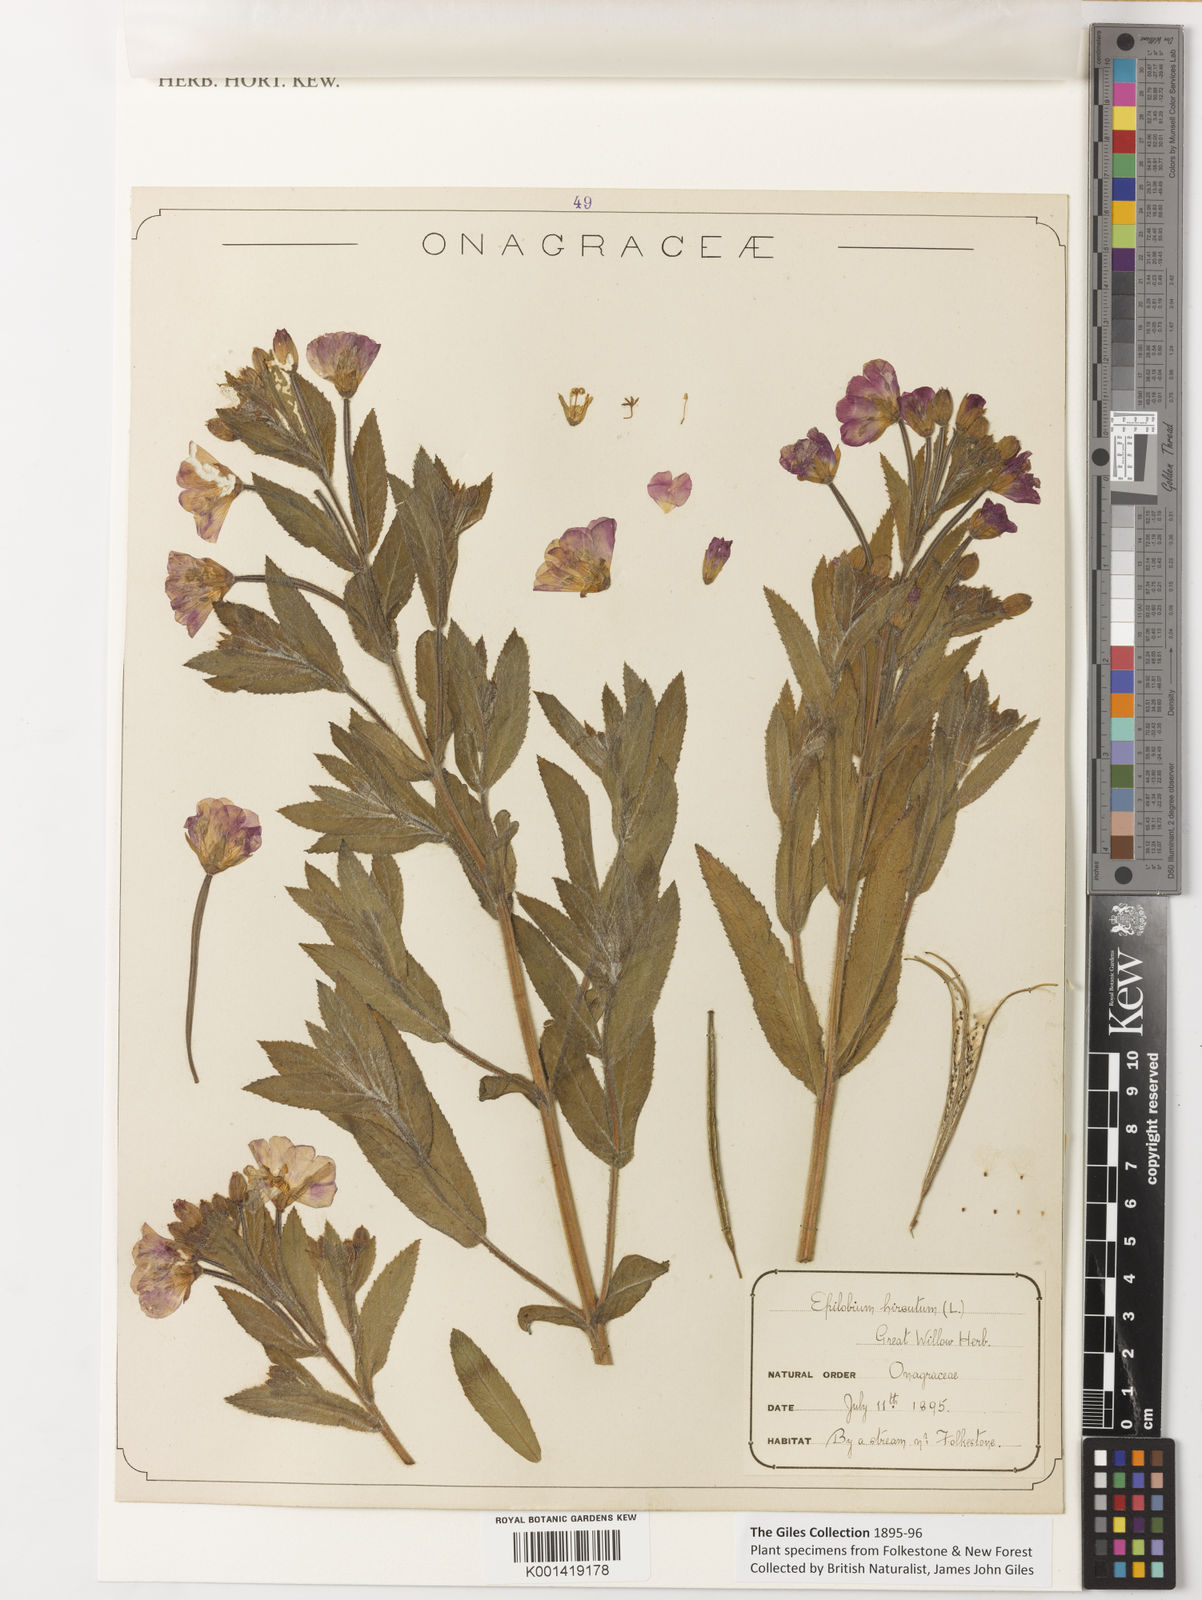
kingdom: Plantae
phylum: Tracheophyta
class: Magnoliopsida
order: Myrtales
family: Onagraceae
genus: Epilobium
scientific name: Epilobium hirsutum
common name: Great willowherb
